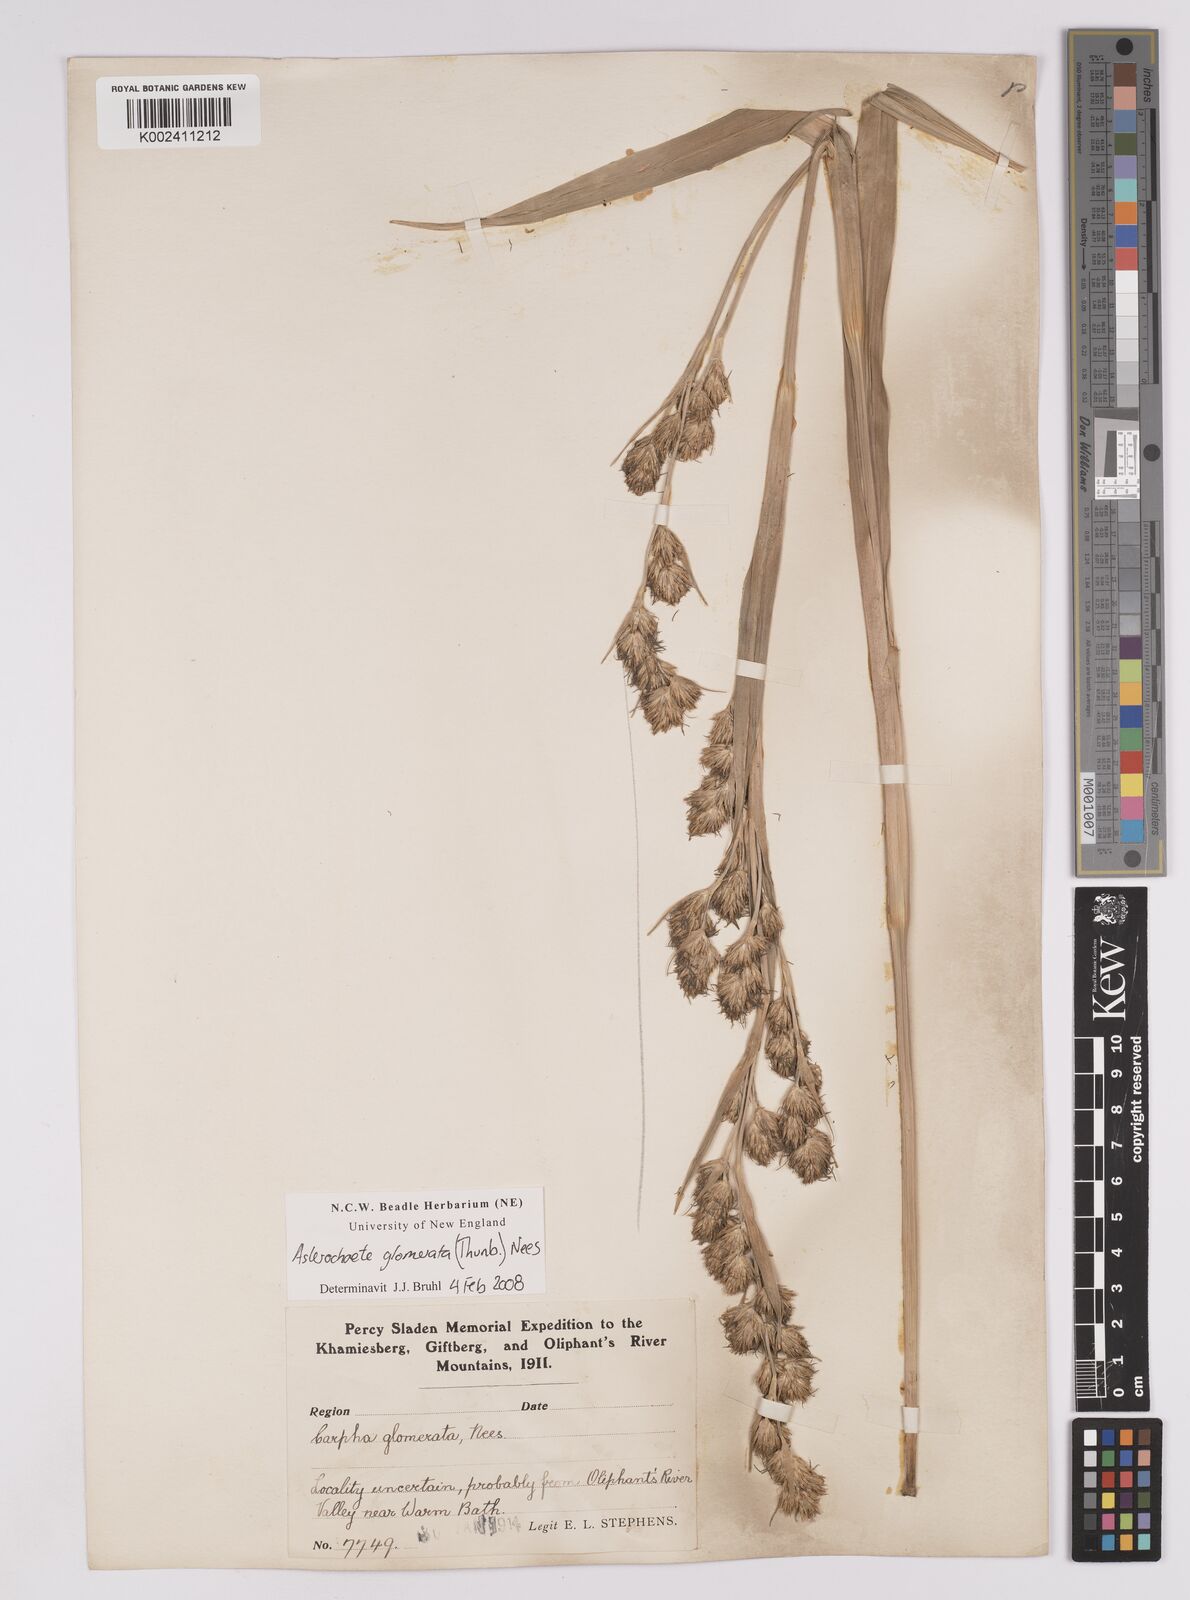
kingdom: Plantae
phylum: Tracheophyta
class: Liliopsida
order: Poales
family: Cyperaceae
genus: Carpha
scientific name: Carpha glomerata
